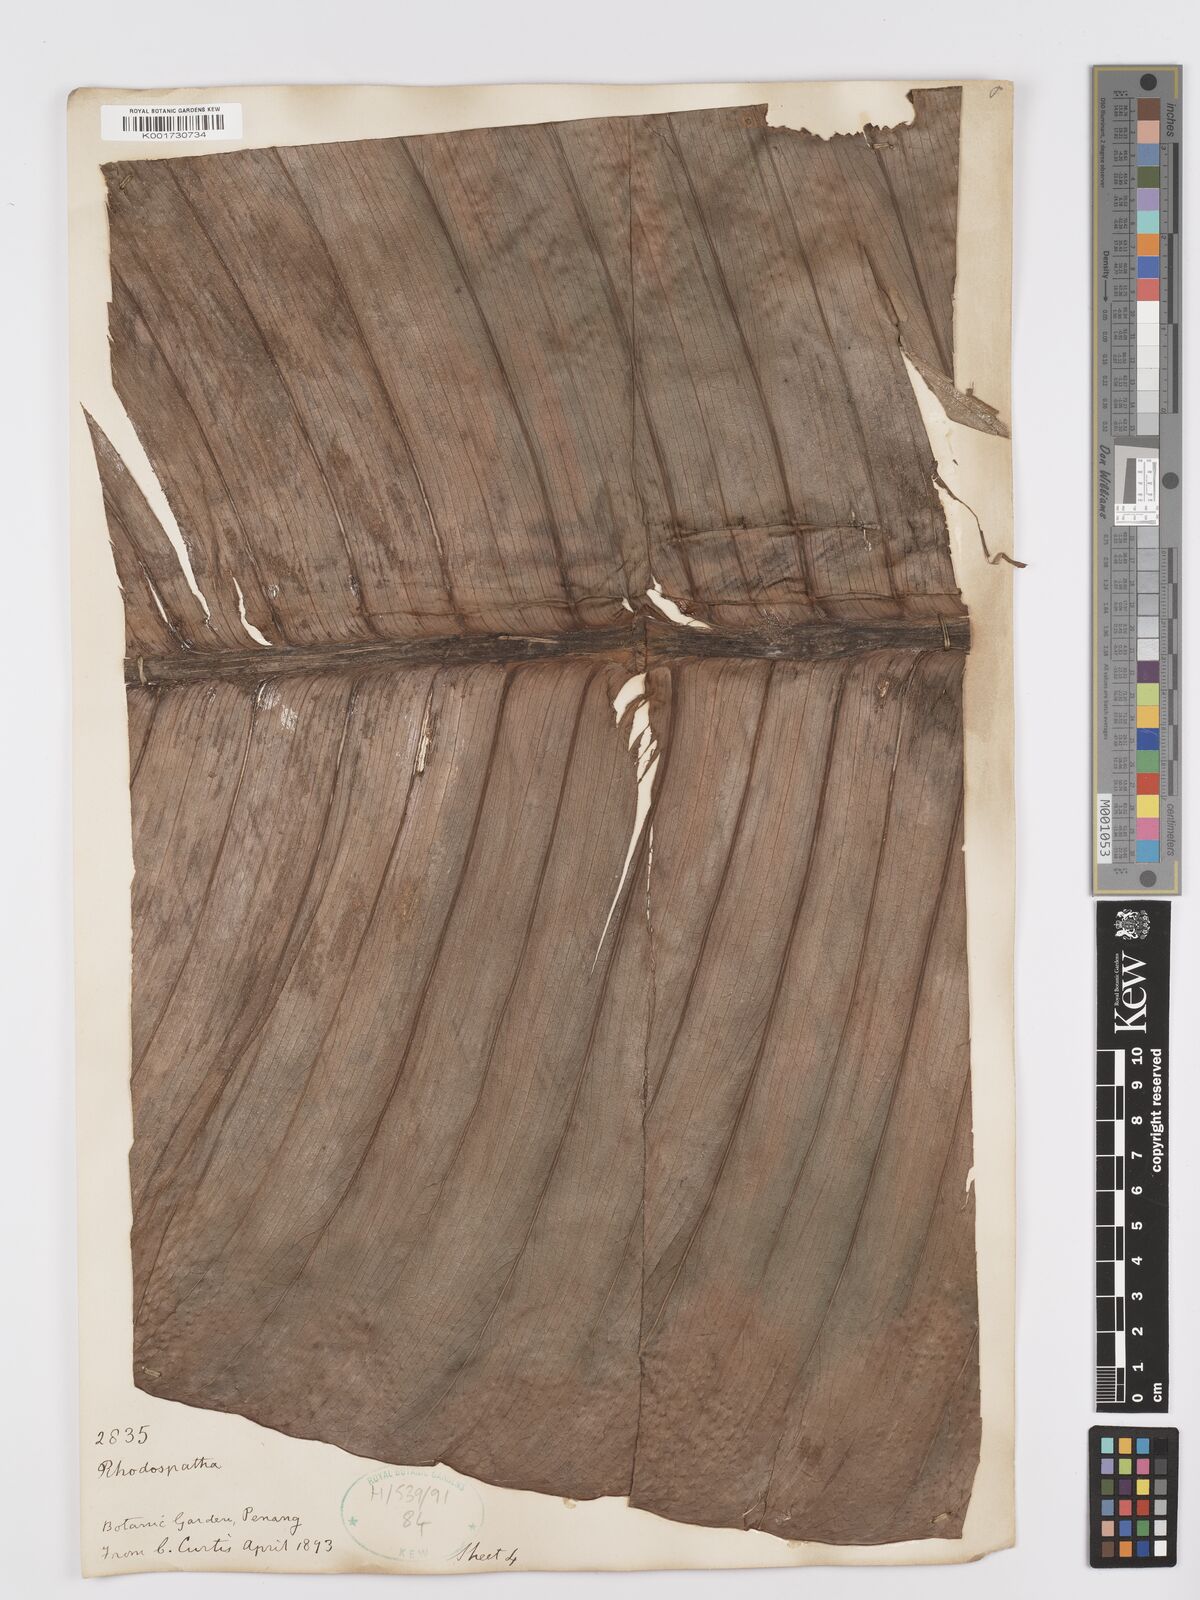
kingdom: Plantae
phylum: Tracheophyta
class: Liliopsida
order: Alismatales
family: Araceae
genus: Rhodospatha
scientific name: Rhodospatha moritziana
